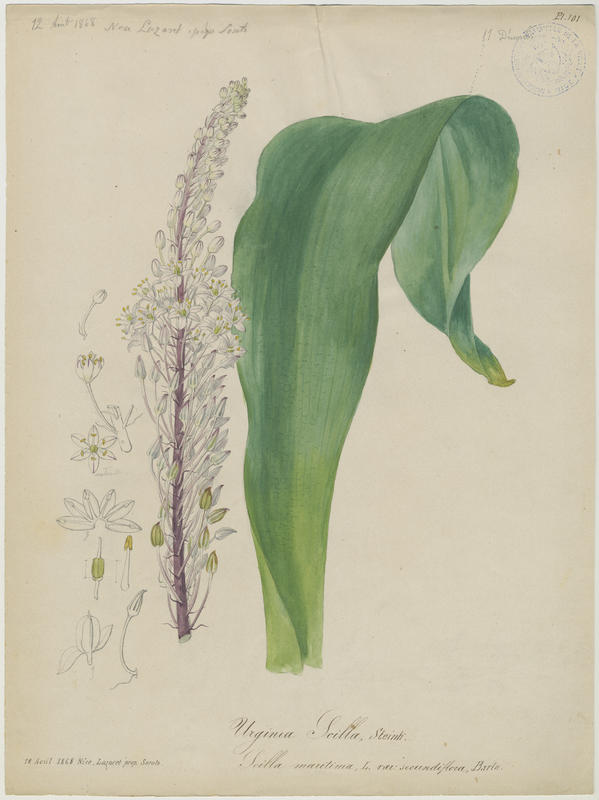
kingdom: Plantae
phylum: Tracheophyta
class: Liliopsida
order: Asparagales
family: Asparagaceae
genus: Drimia
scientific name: Drimia maritima
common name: Maritime squill
